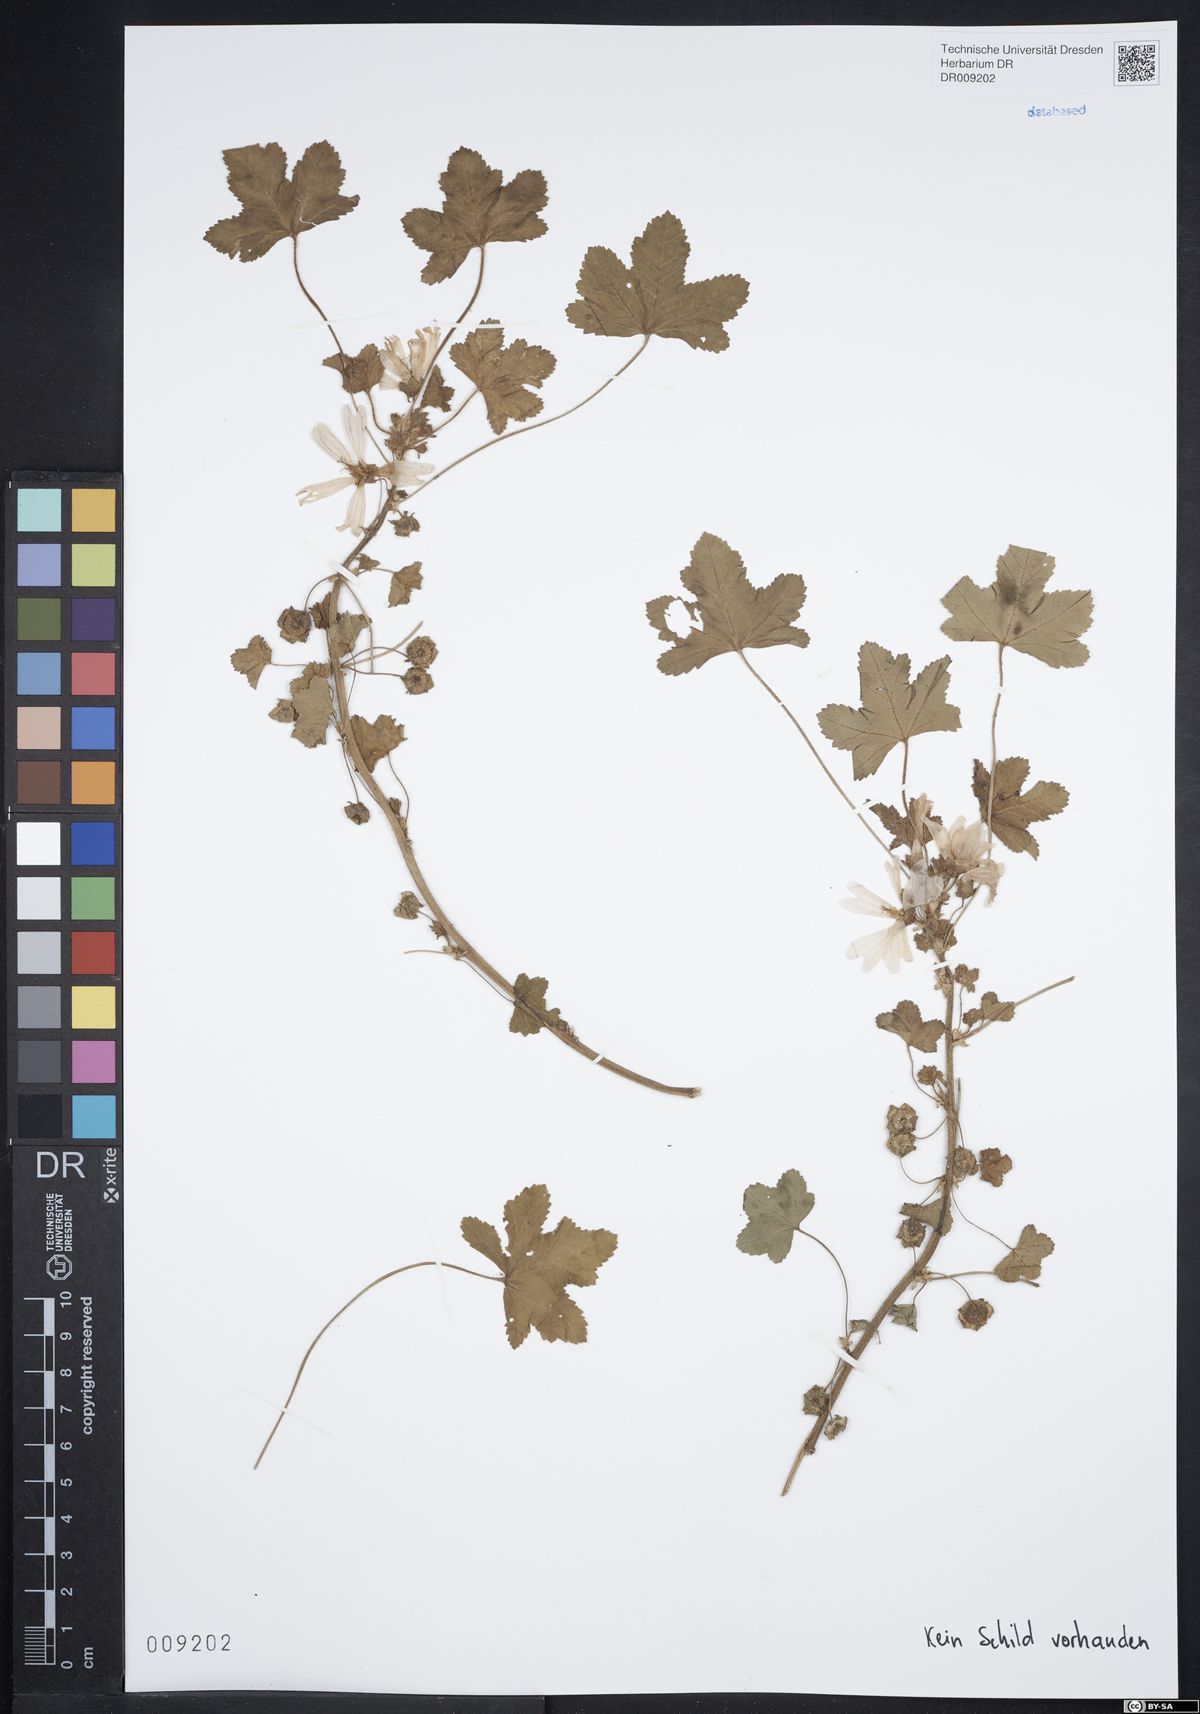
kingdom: Plantae
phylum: Tracheophyta
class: Magnoliopsida
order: Malvales
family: Malvaceae
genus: Malva
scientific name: Malva sylvestris
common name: Common mallow
